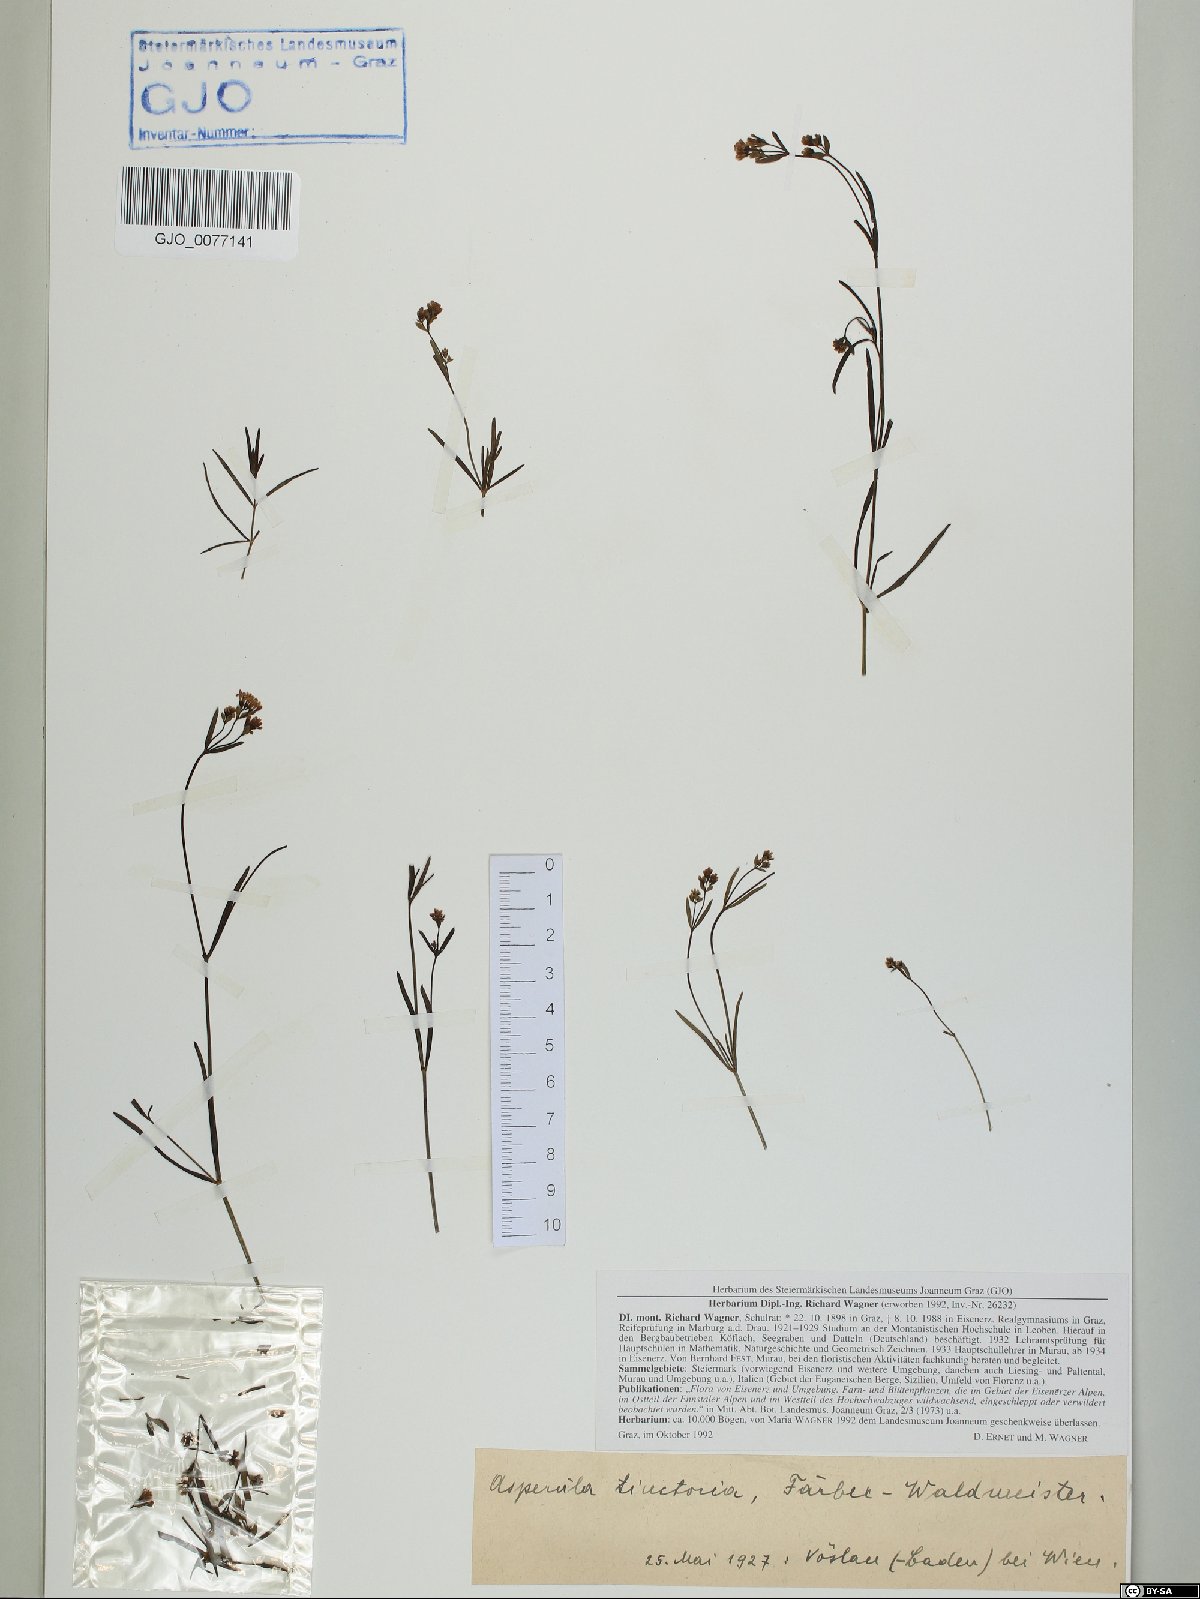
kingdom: Plantae
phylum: Tracheophyta
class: Magnoliopsida
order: Gentianales
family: Rubiaceae
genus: Asperula
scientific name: Asperula tinctoria
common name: Dyer's woodruff
